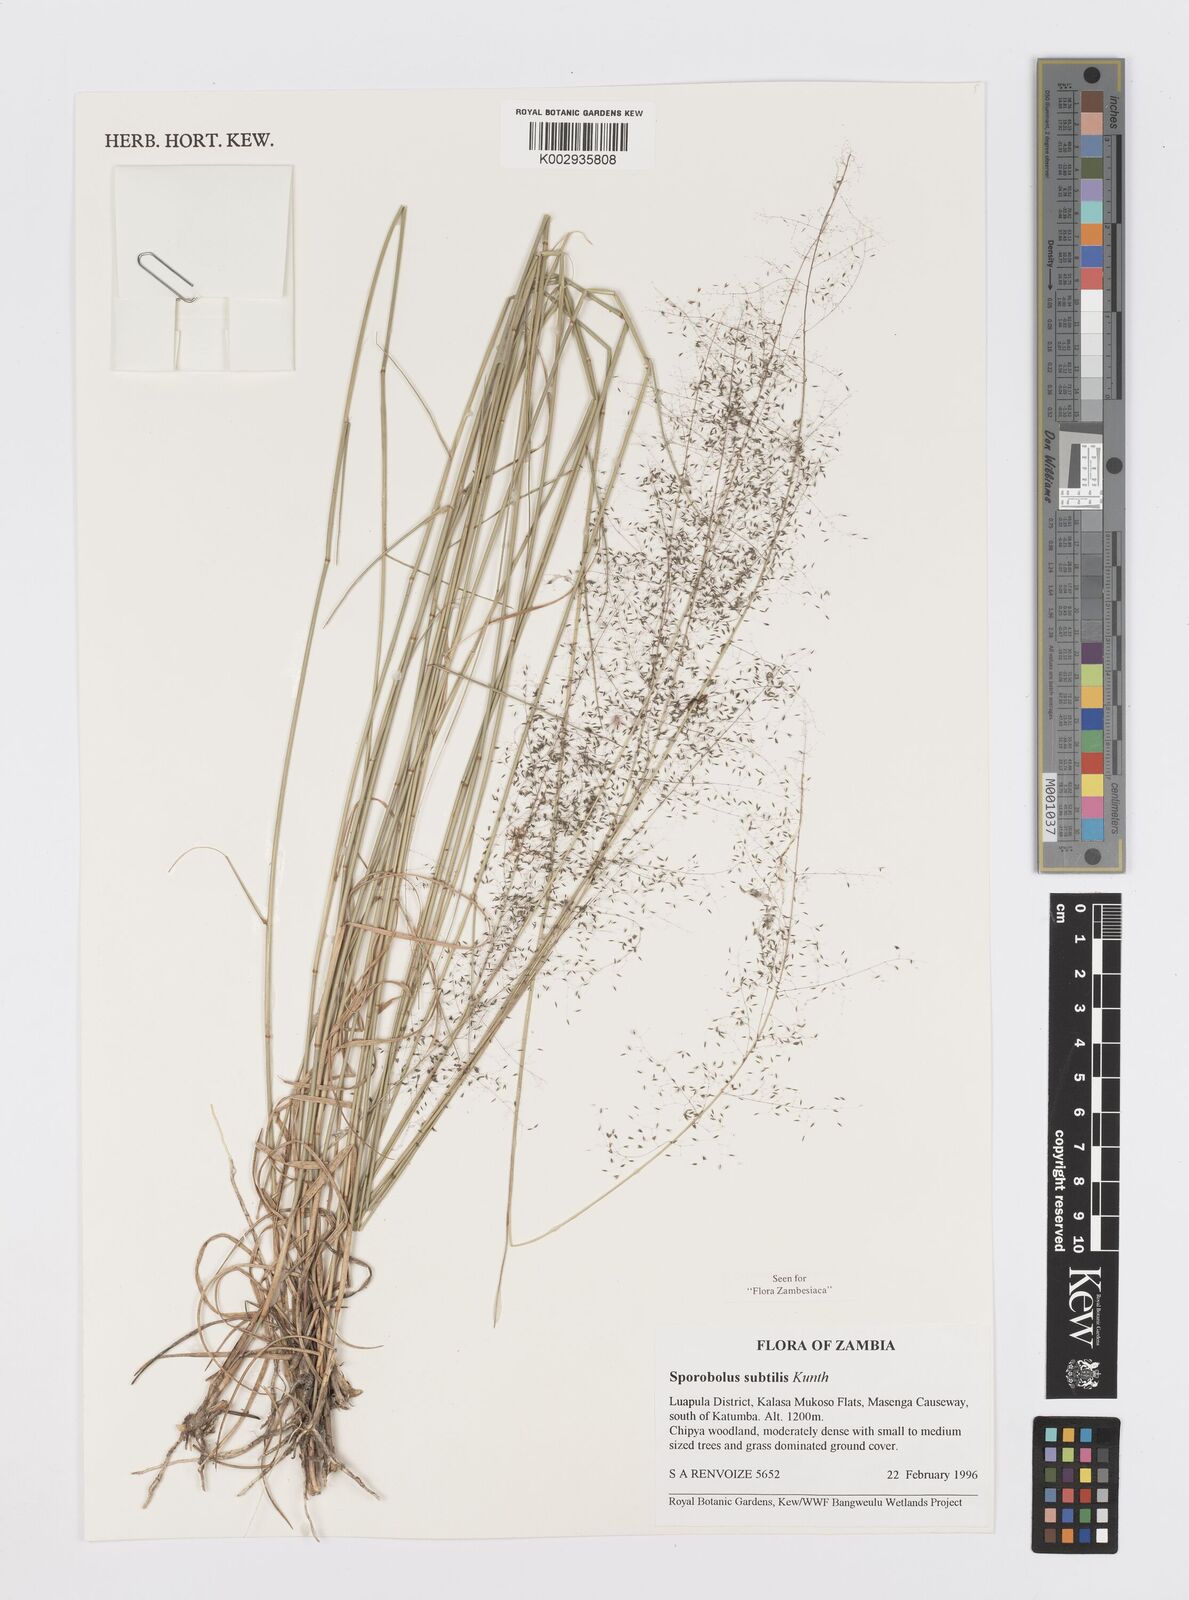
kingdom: Plantae
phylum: Tracheophyta
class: Liliopsida
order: Poales
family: Poaceae
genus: Sporobolus
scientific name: Sporobolus subtilis
